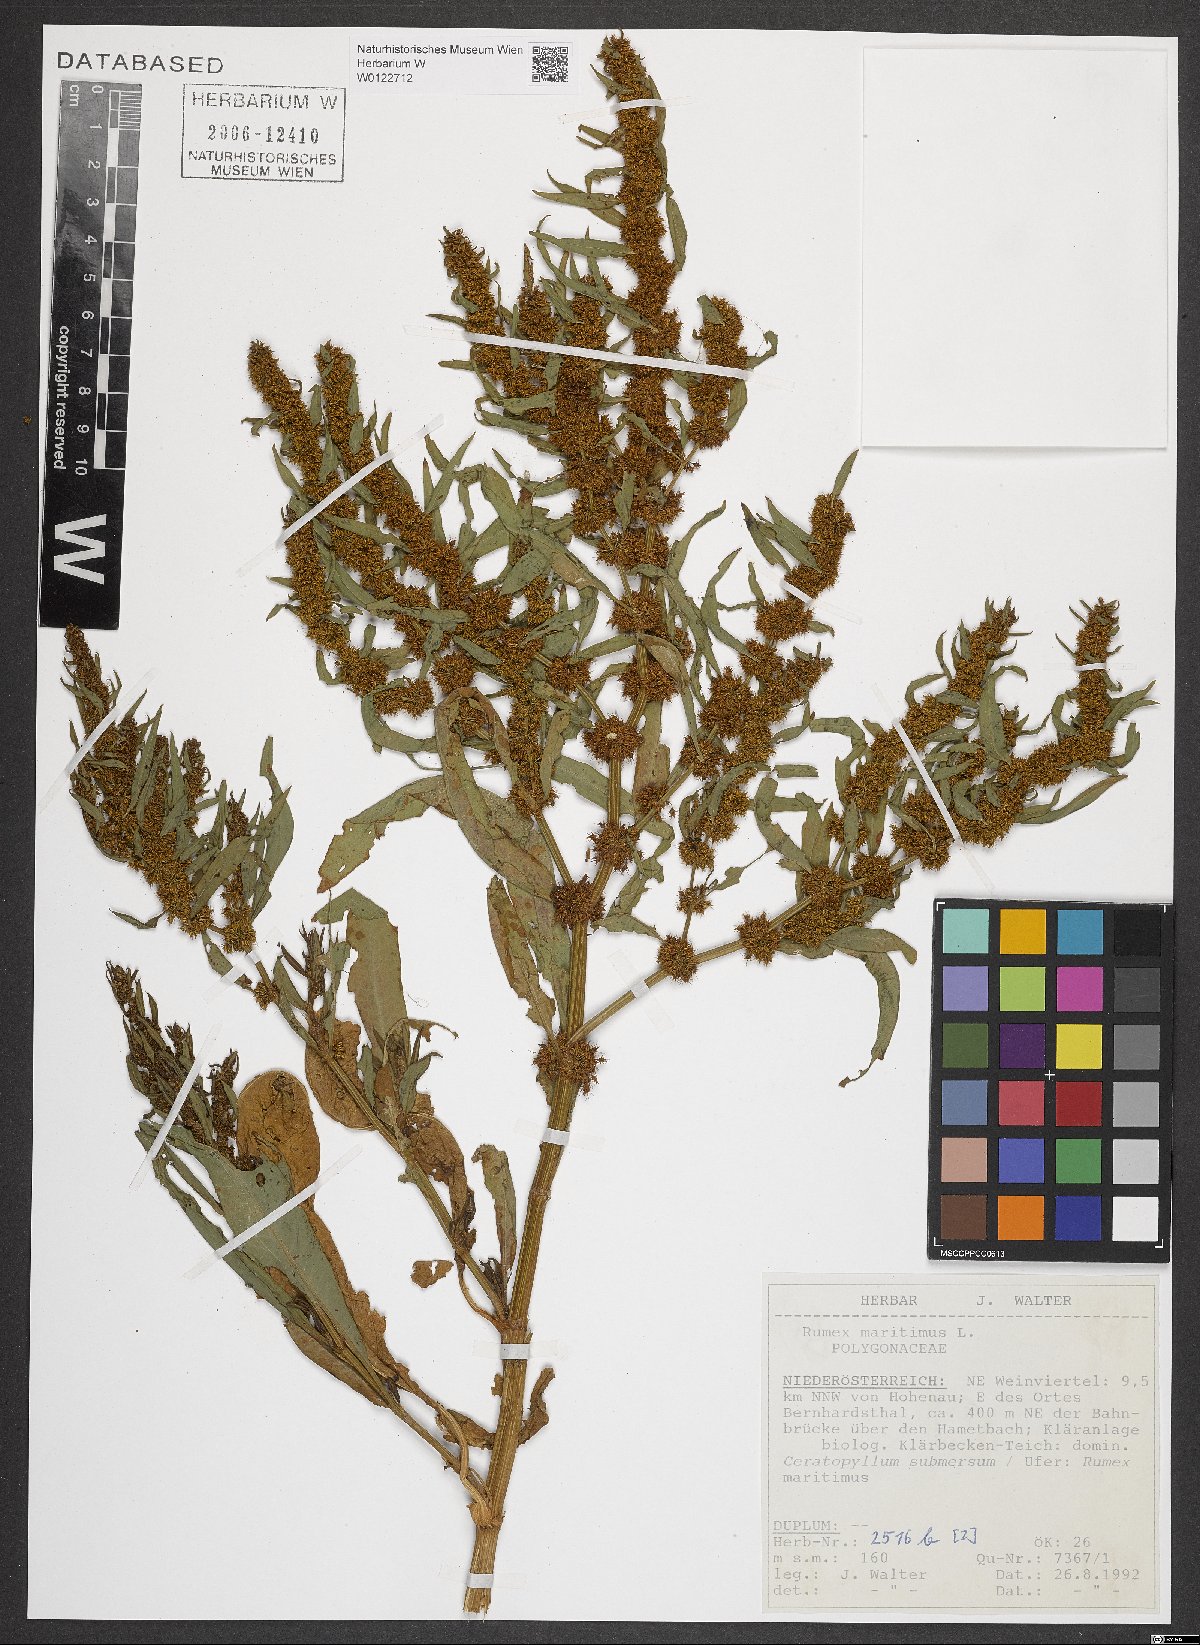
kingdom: Plantae
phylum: Tracheophyta
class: Magnoliopsida
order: Caryophyllales
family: Polygonaceae
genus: Rumex
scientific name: Rumex maritimus
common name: Golden dock
